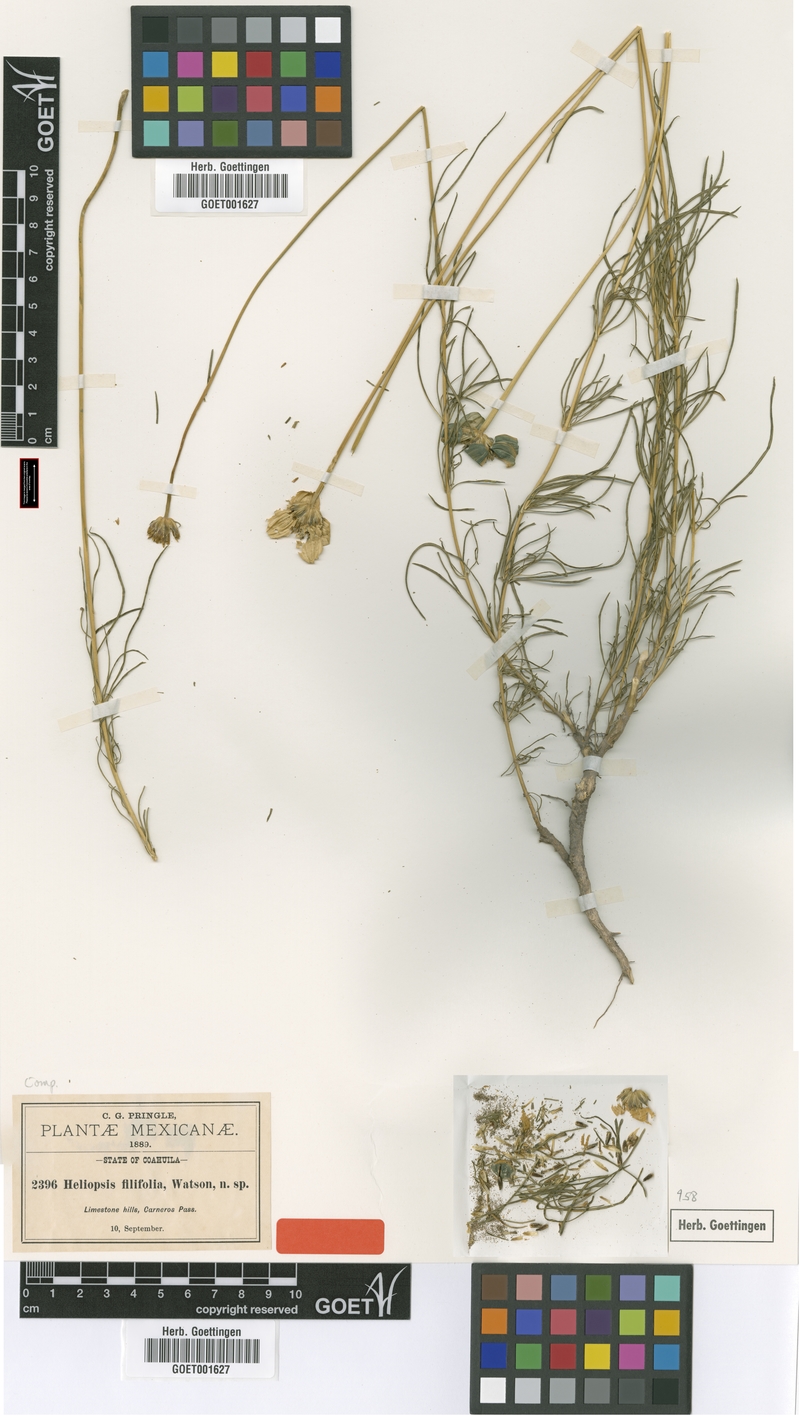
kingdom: Plantae
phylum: Tracheophyta
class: Magnoliopsida
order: Asterales
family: Asteraceae
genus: Heliopsis
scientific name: Heliopsis filifolia
